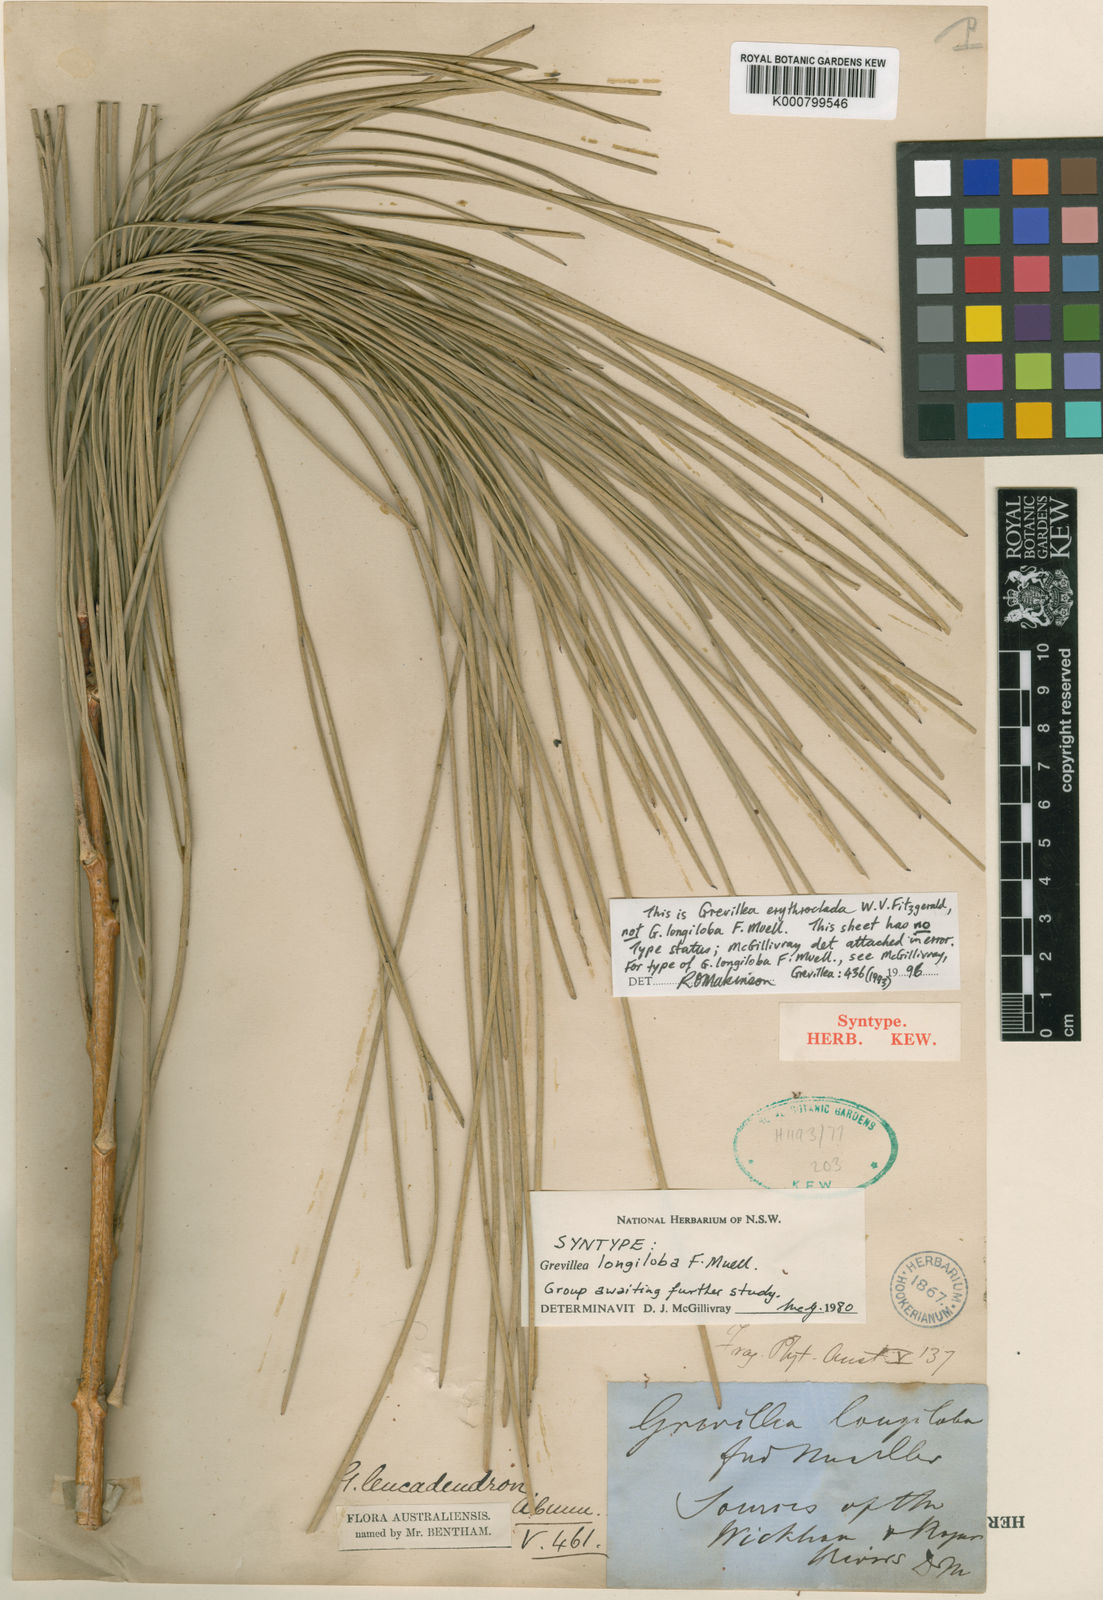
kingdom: Plantae
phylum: Tracheophyta
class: Magnoliopsida
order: Proteales
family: Proteaceae
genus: Grevillea
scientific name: Grevillea erythroclada
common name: Needle-leaf grevillea
